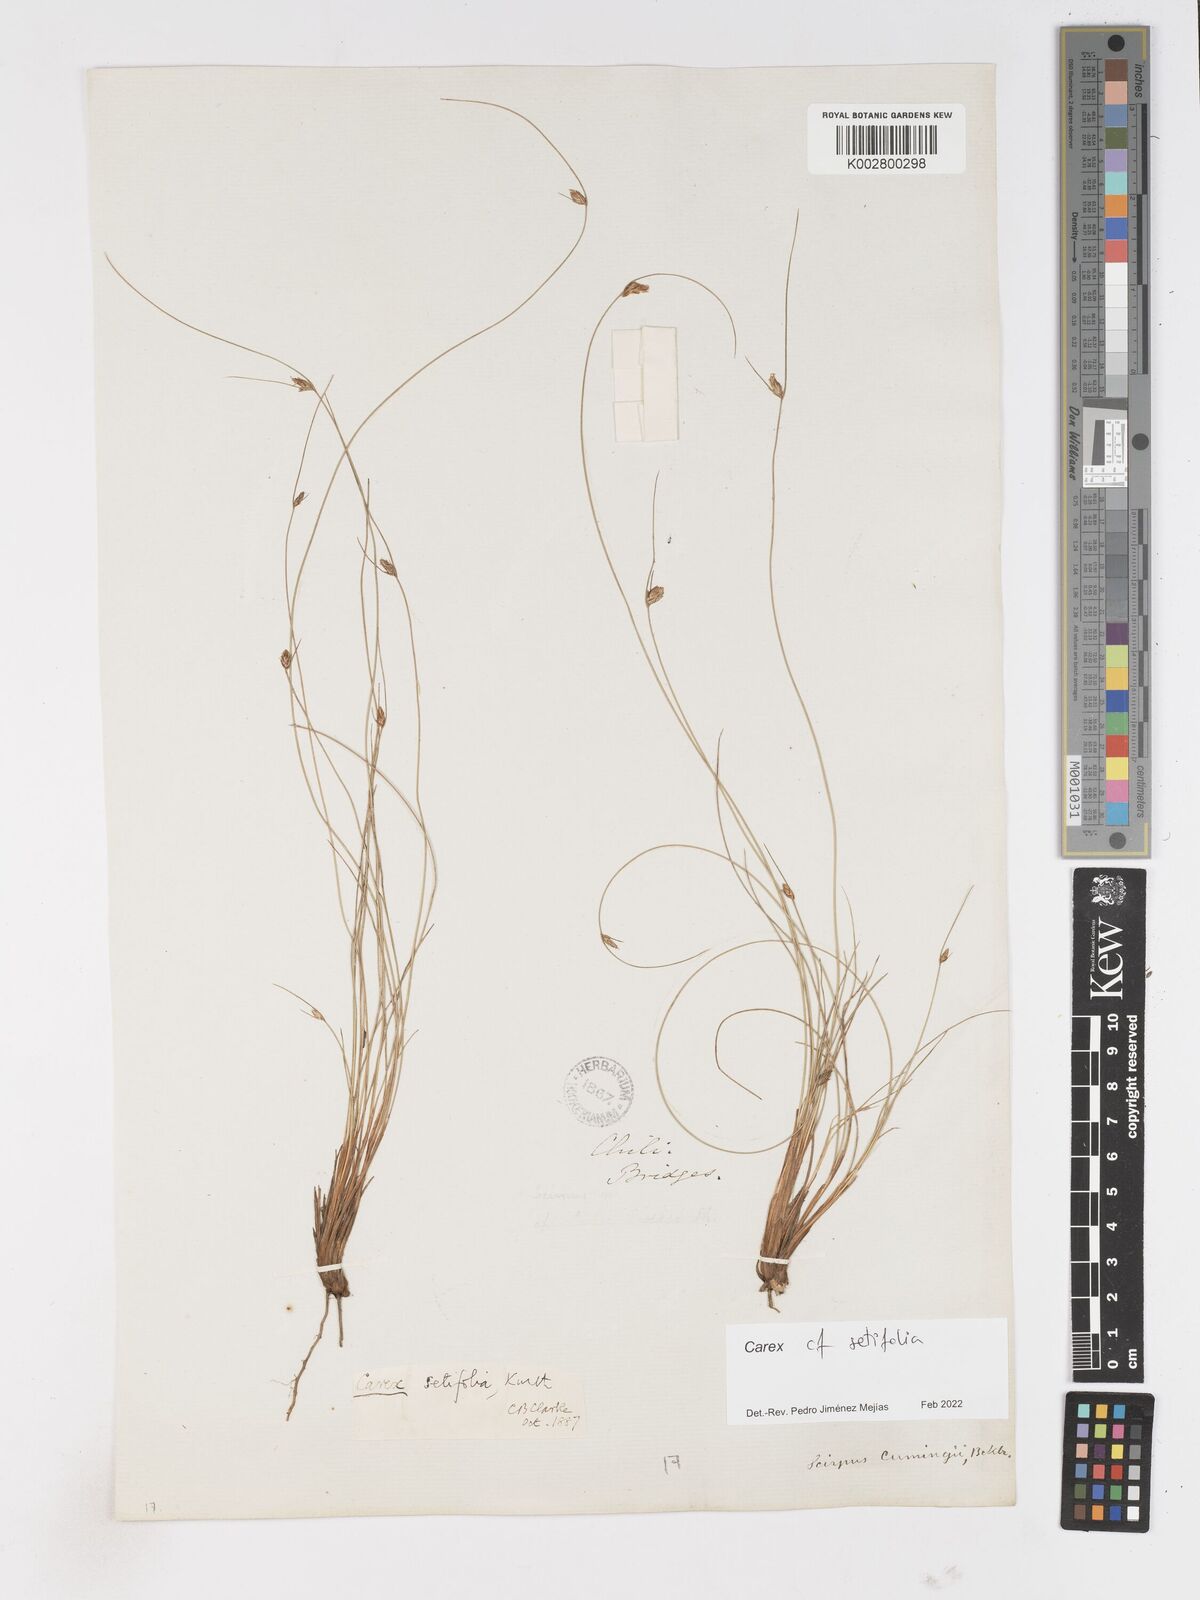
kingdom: Plantae
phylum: Tracheophyta
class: Liliopsida
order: Poales
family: Cyperaceae
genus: Carex
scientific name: Carex setifolia
